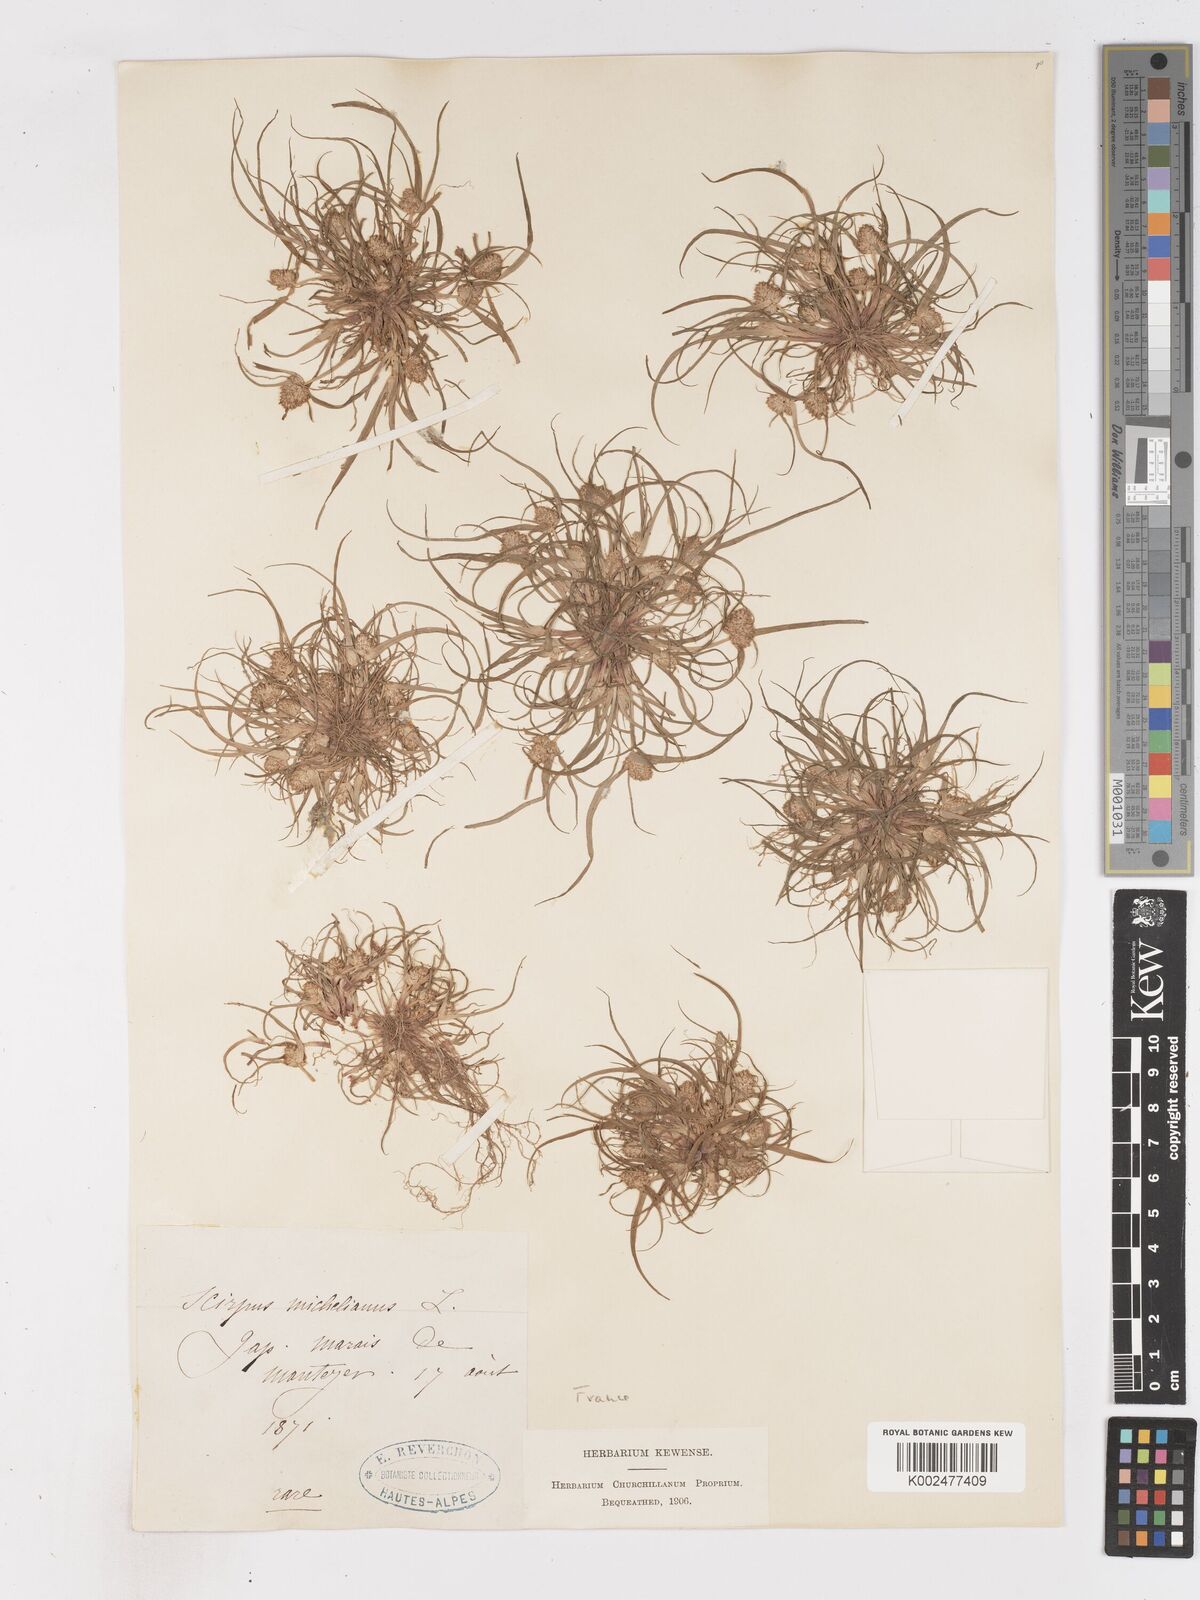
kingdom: Plantae
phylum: Tracheophyta
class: Liliopsida
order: Poales
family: Cyperaceae
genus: Cyperus
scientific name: Cyperus michelianus
